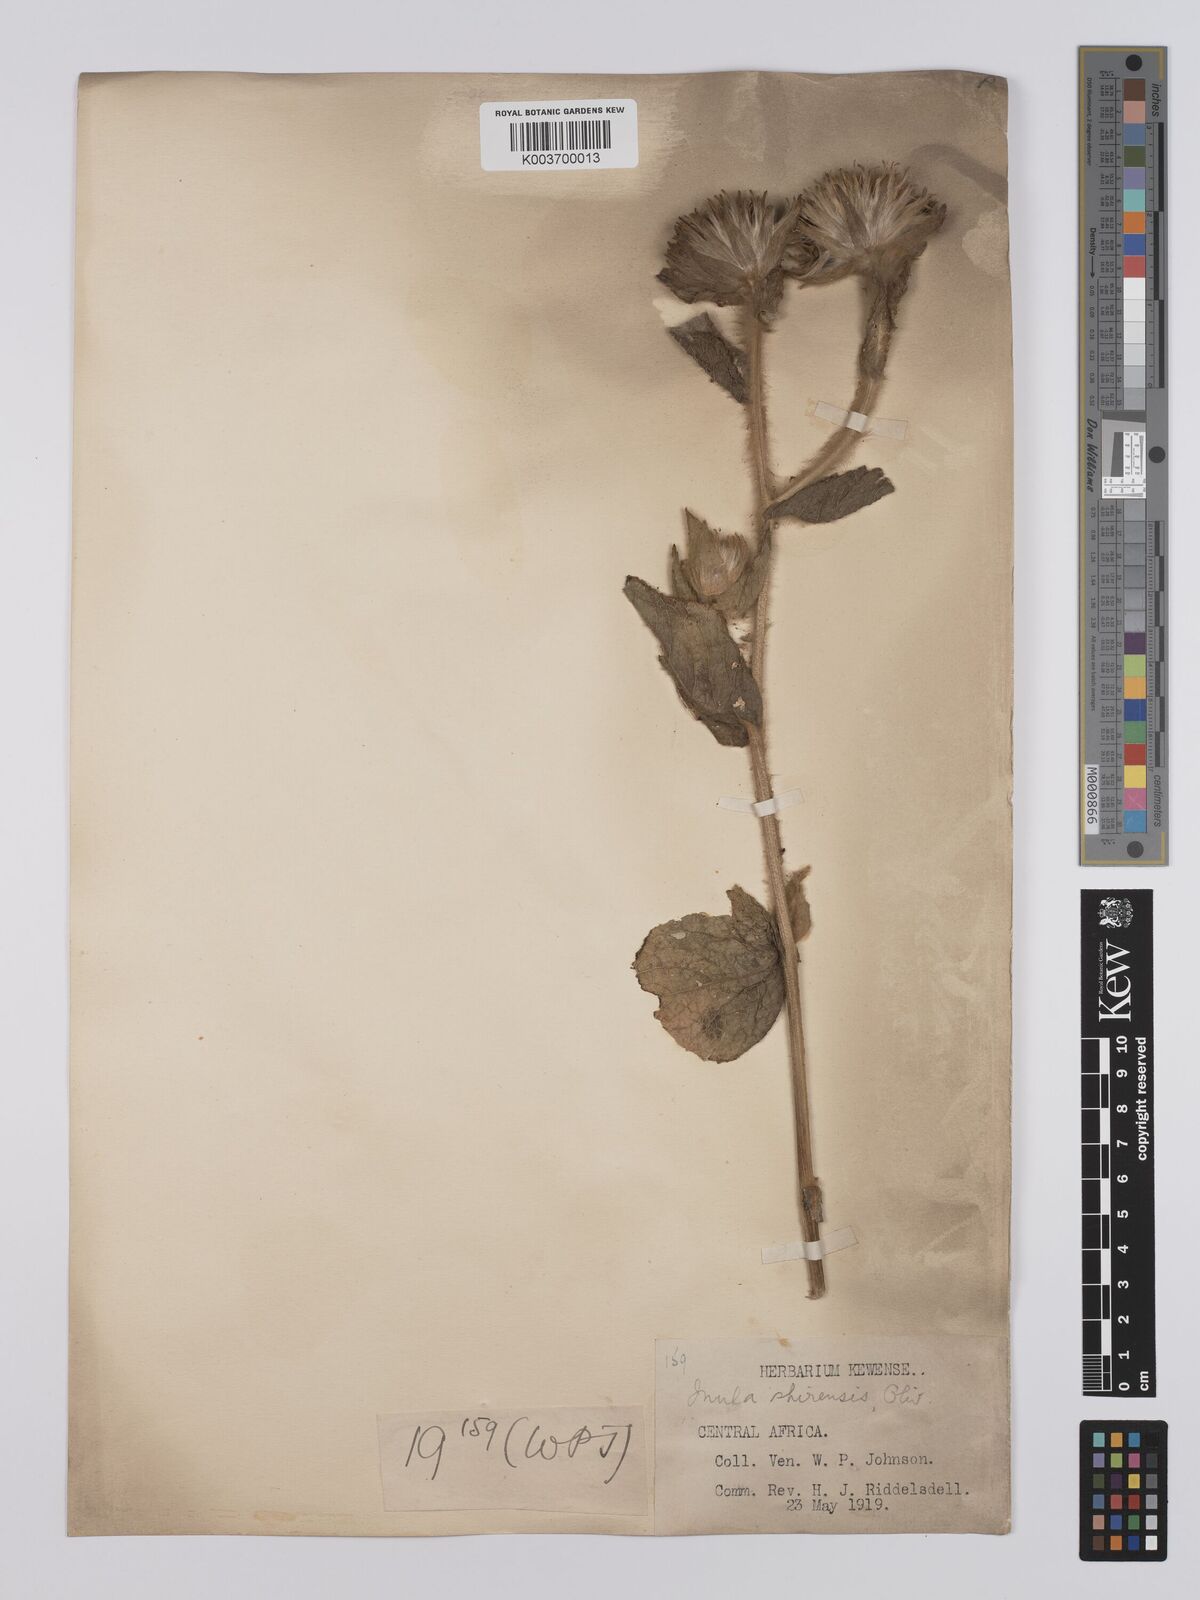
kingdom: Plantae
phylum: Tracheophyta
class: Magnoliopsida
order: Asterales
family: Asteraceae
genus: Monactinocephalus
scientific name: Monactinocephalus shirensis
